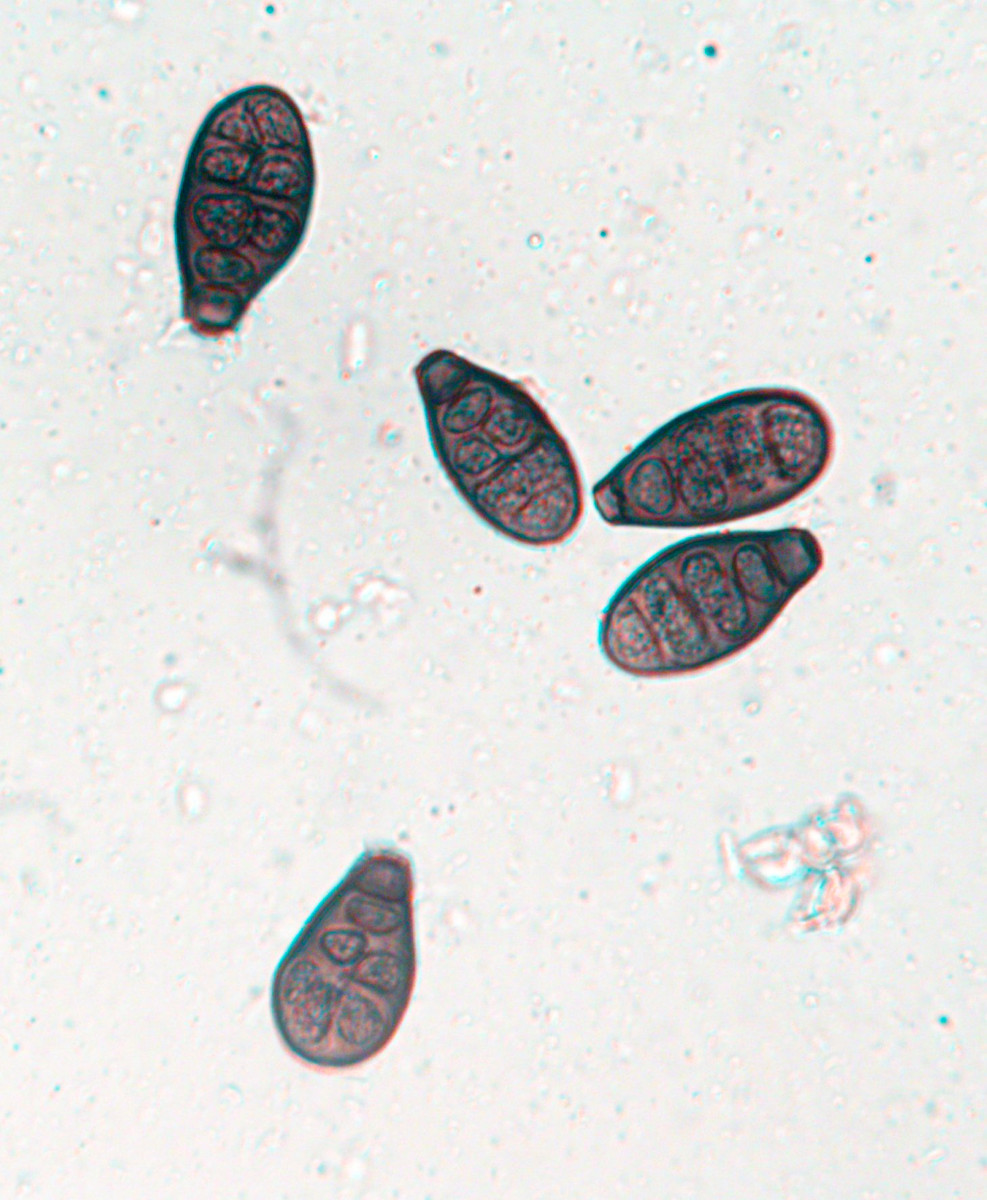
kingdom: Fungi
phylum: Ascomycota
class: Sordariomycetes
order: Diaporthales
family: Melanconidaceae
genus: Prosthecium
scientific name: Prosthecium pyriforme
